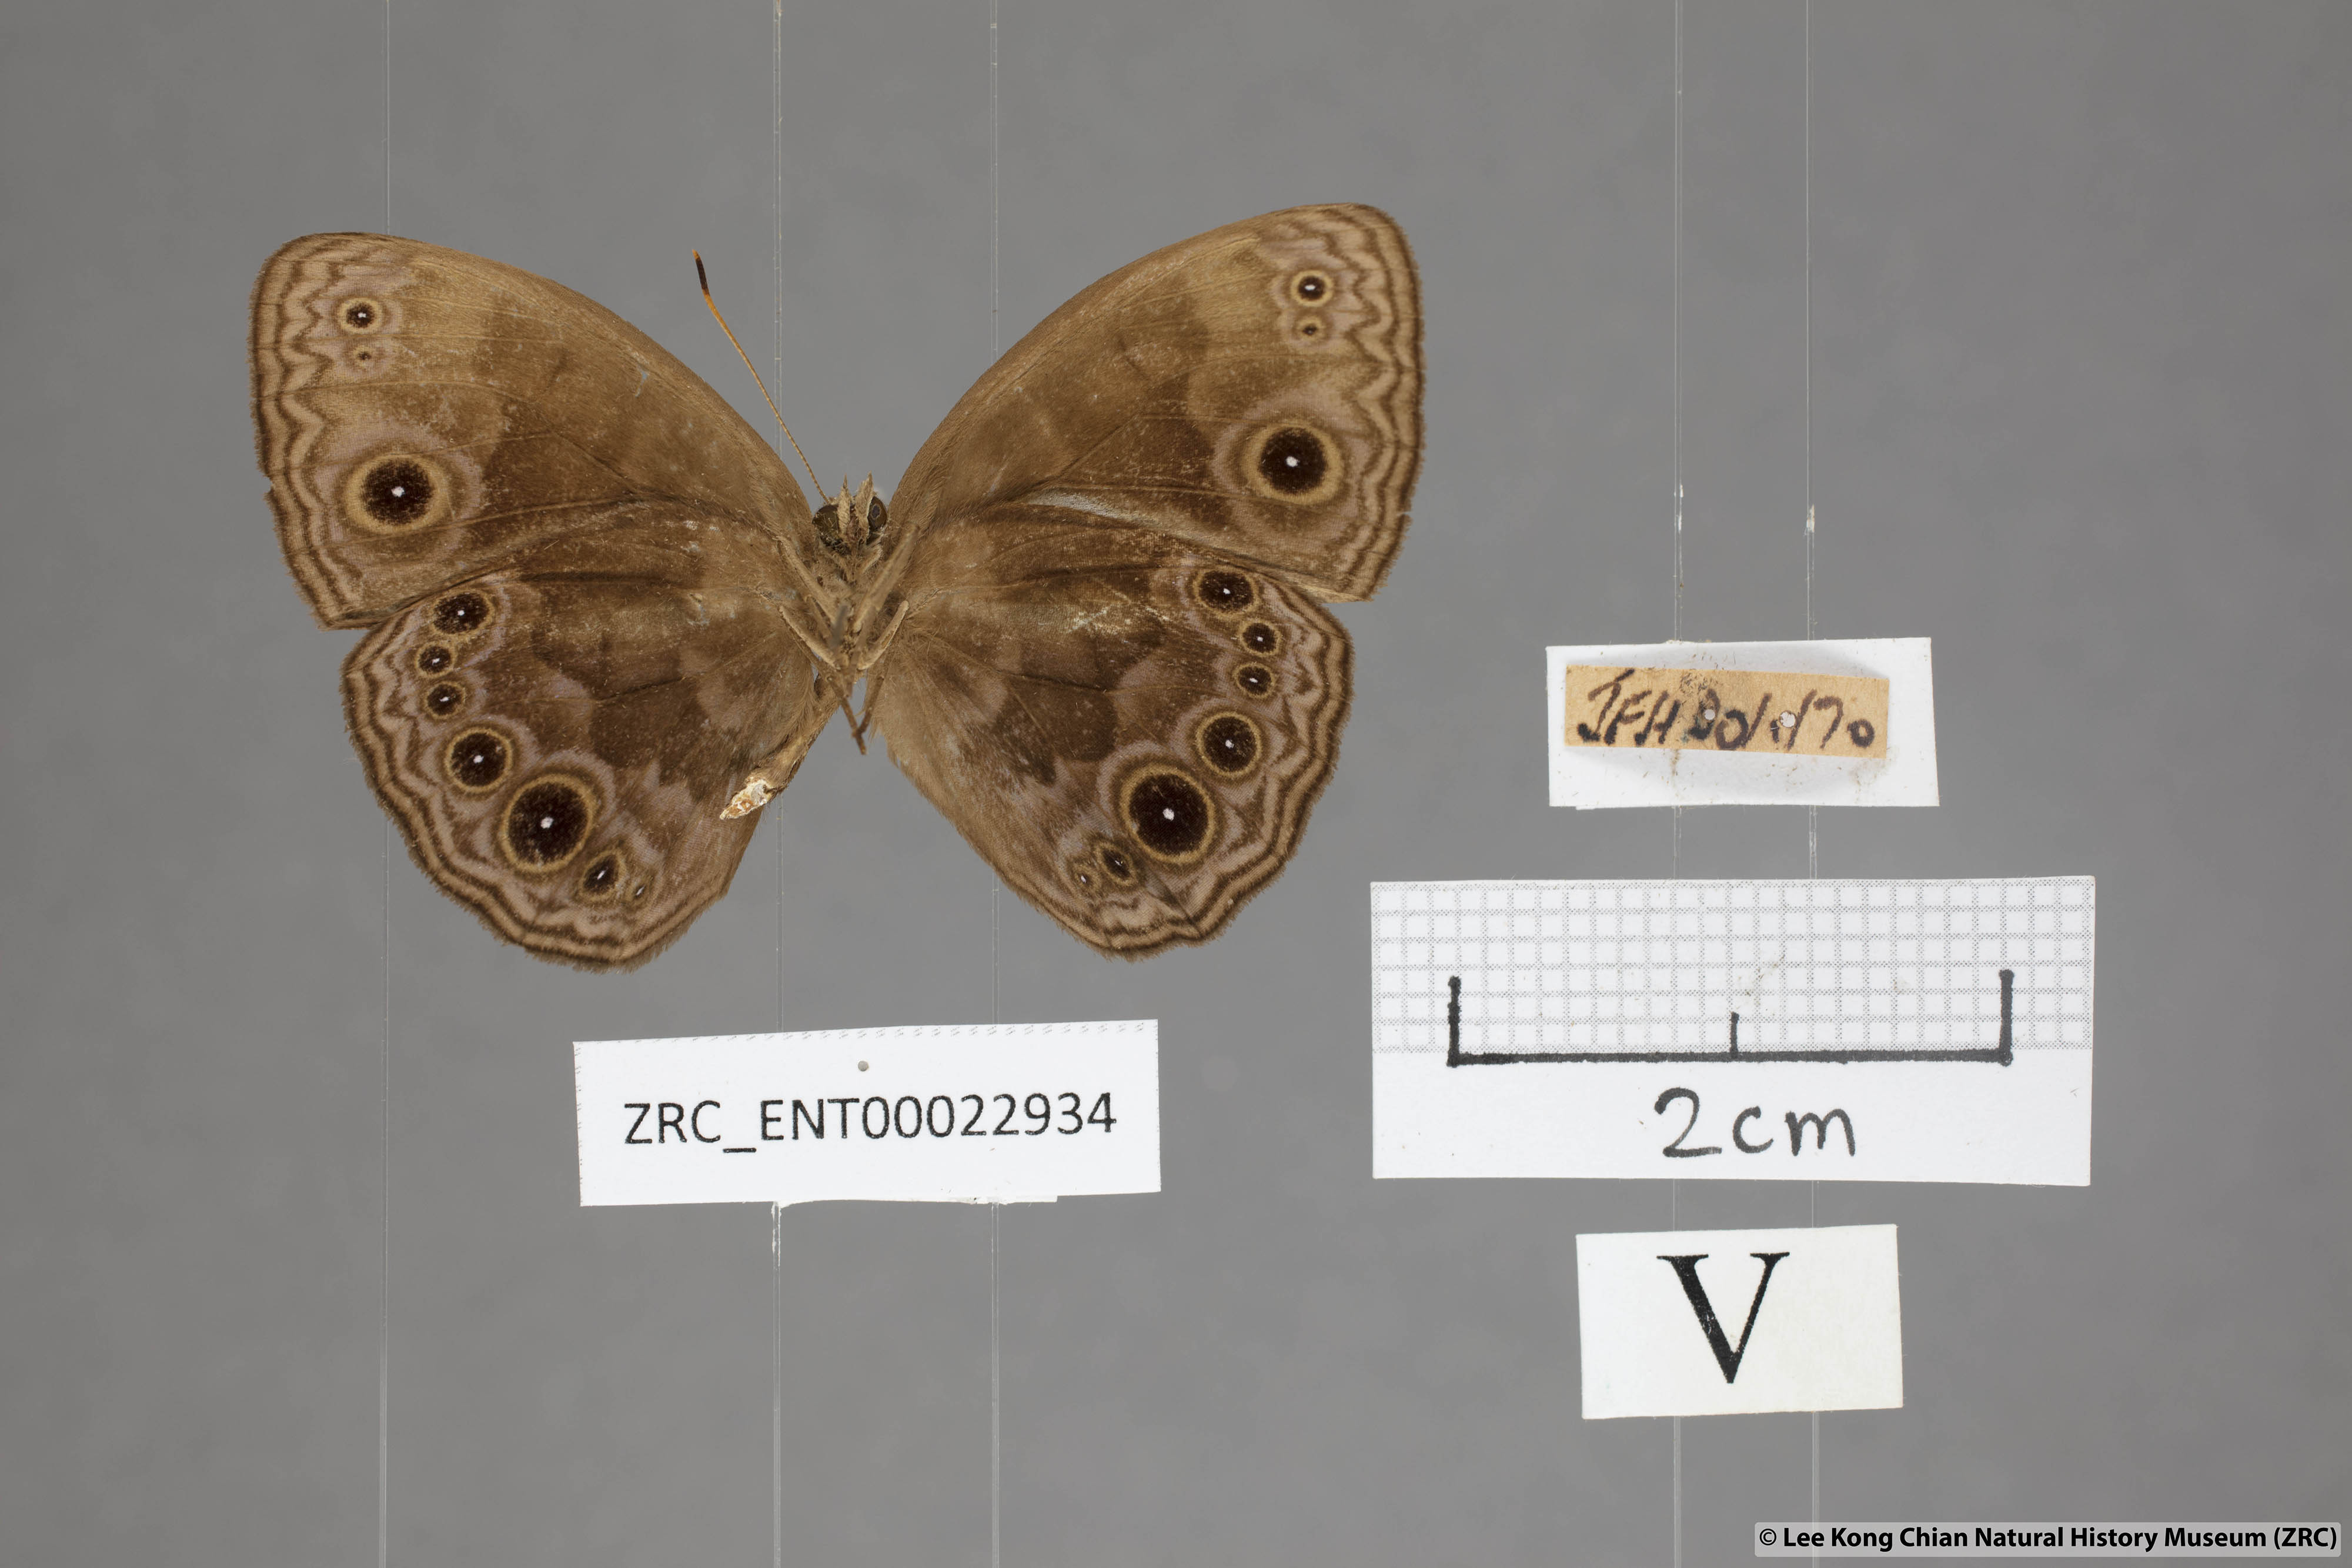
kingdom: Animalia
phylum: Arthropoda
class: Insecta
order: Lepidoptera
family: Nymphalidae
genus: Mycalesis
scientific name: Mycalesis maianeas
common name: Bandless bushbrown
